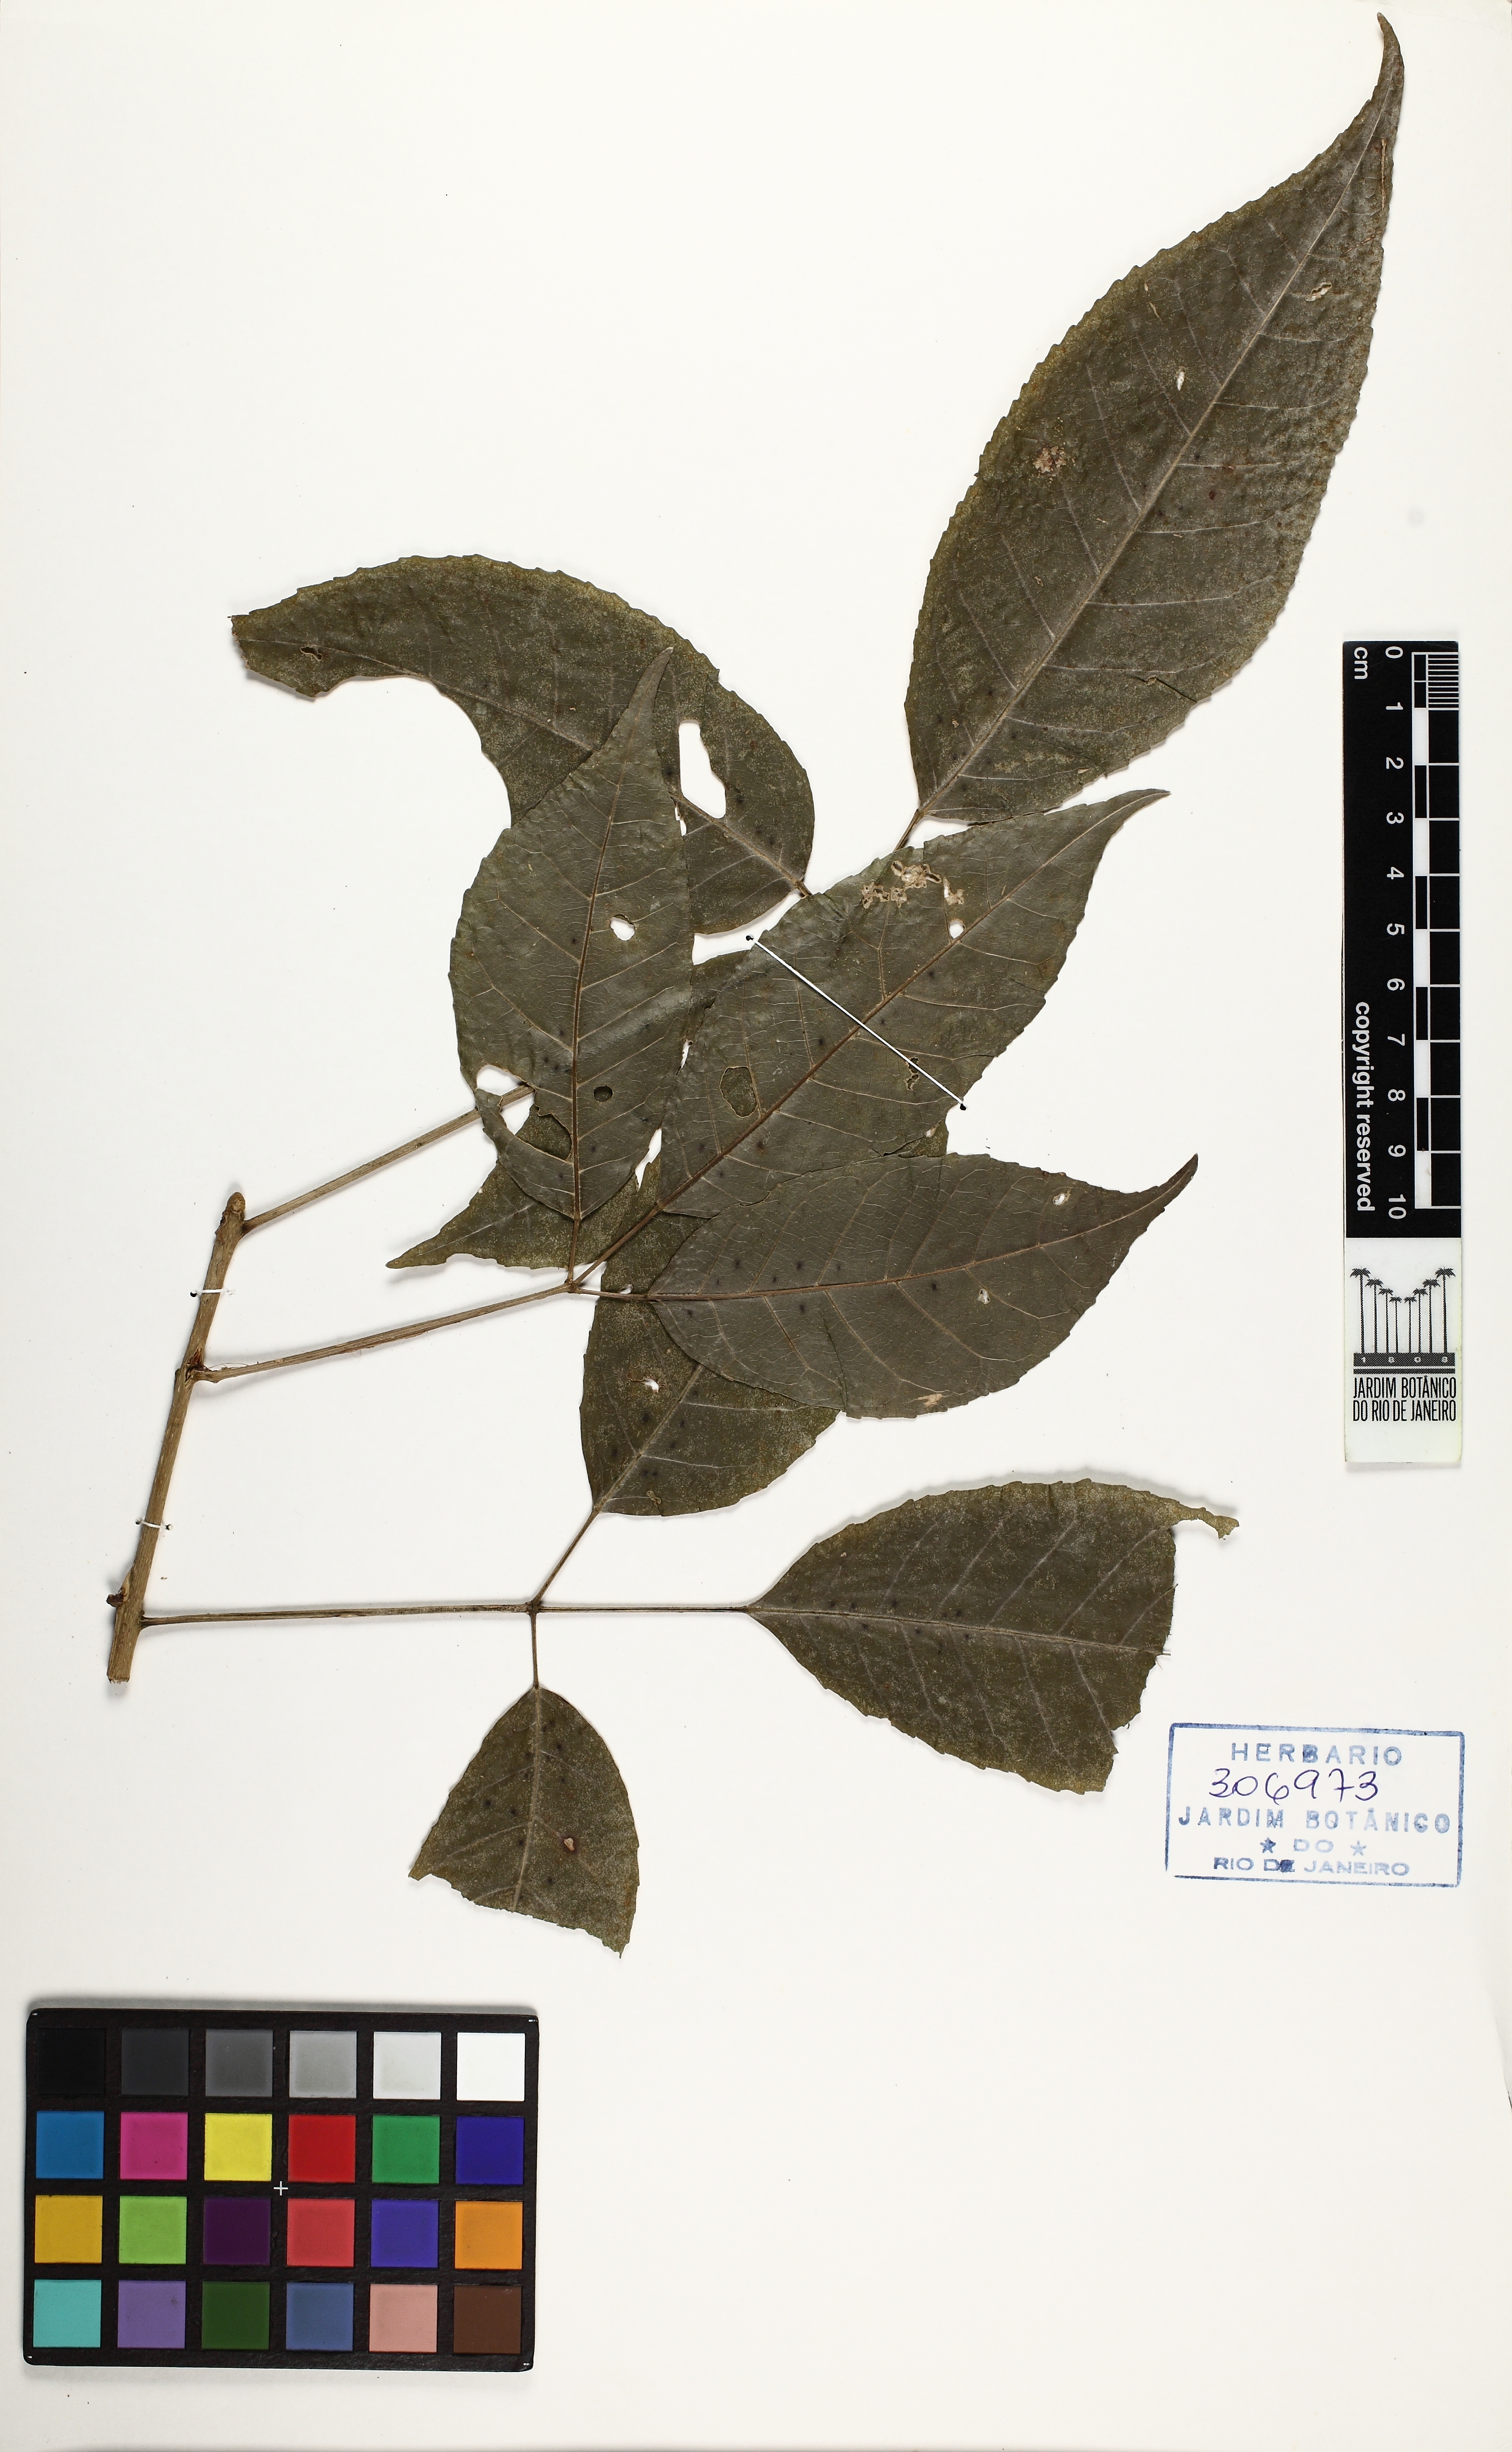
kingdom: Plantae
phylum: Tracheophyta
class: Magnoliopsida
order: Lamiales
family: Bignoniaceae
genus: Tabebuia
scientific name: Tabebuia
